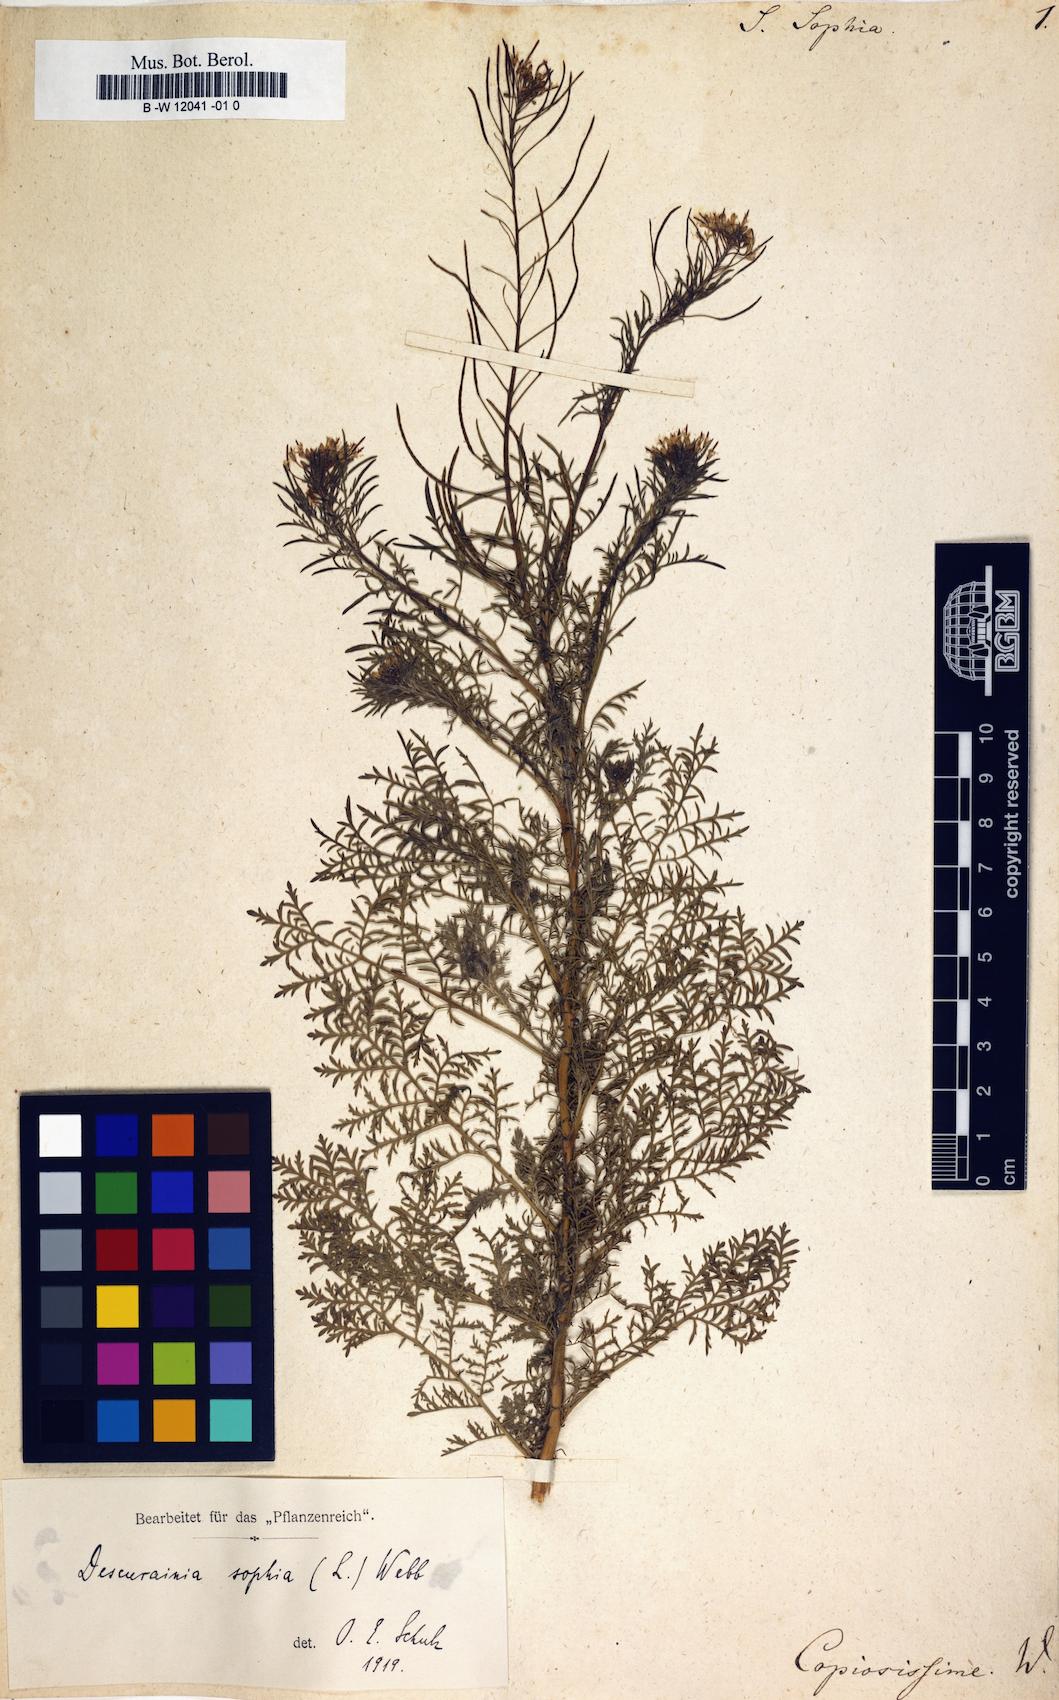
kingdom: Plantae
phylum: Tracheophyta
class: Magnoliopsida
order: Brassicales
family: Brassicaceae
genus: Sisymbrium
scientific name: Sisymbrium sophia
